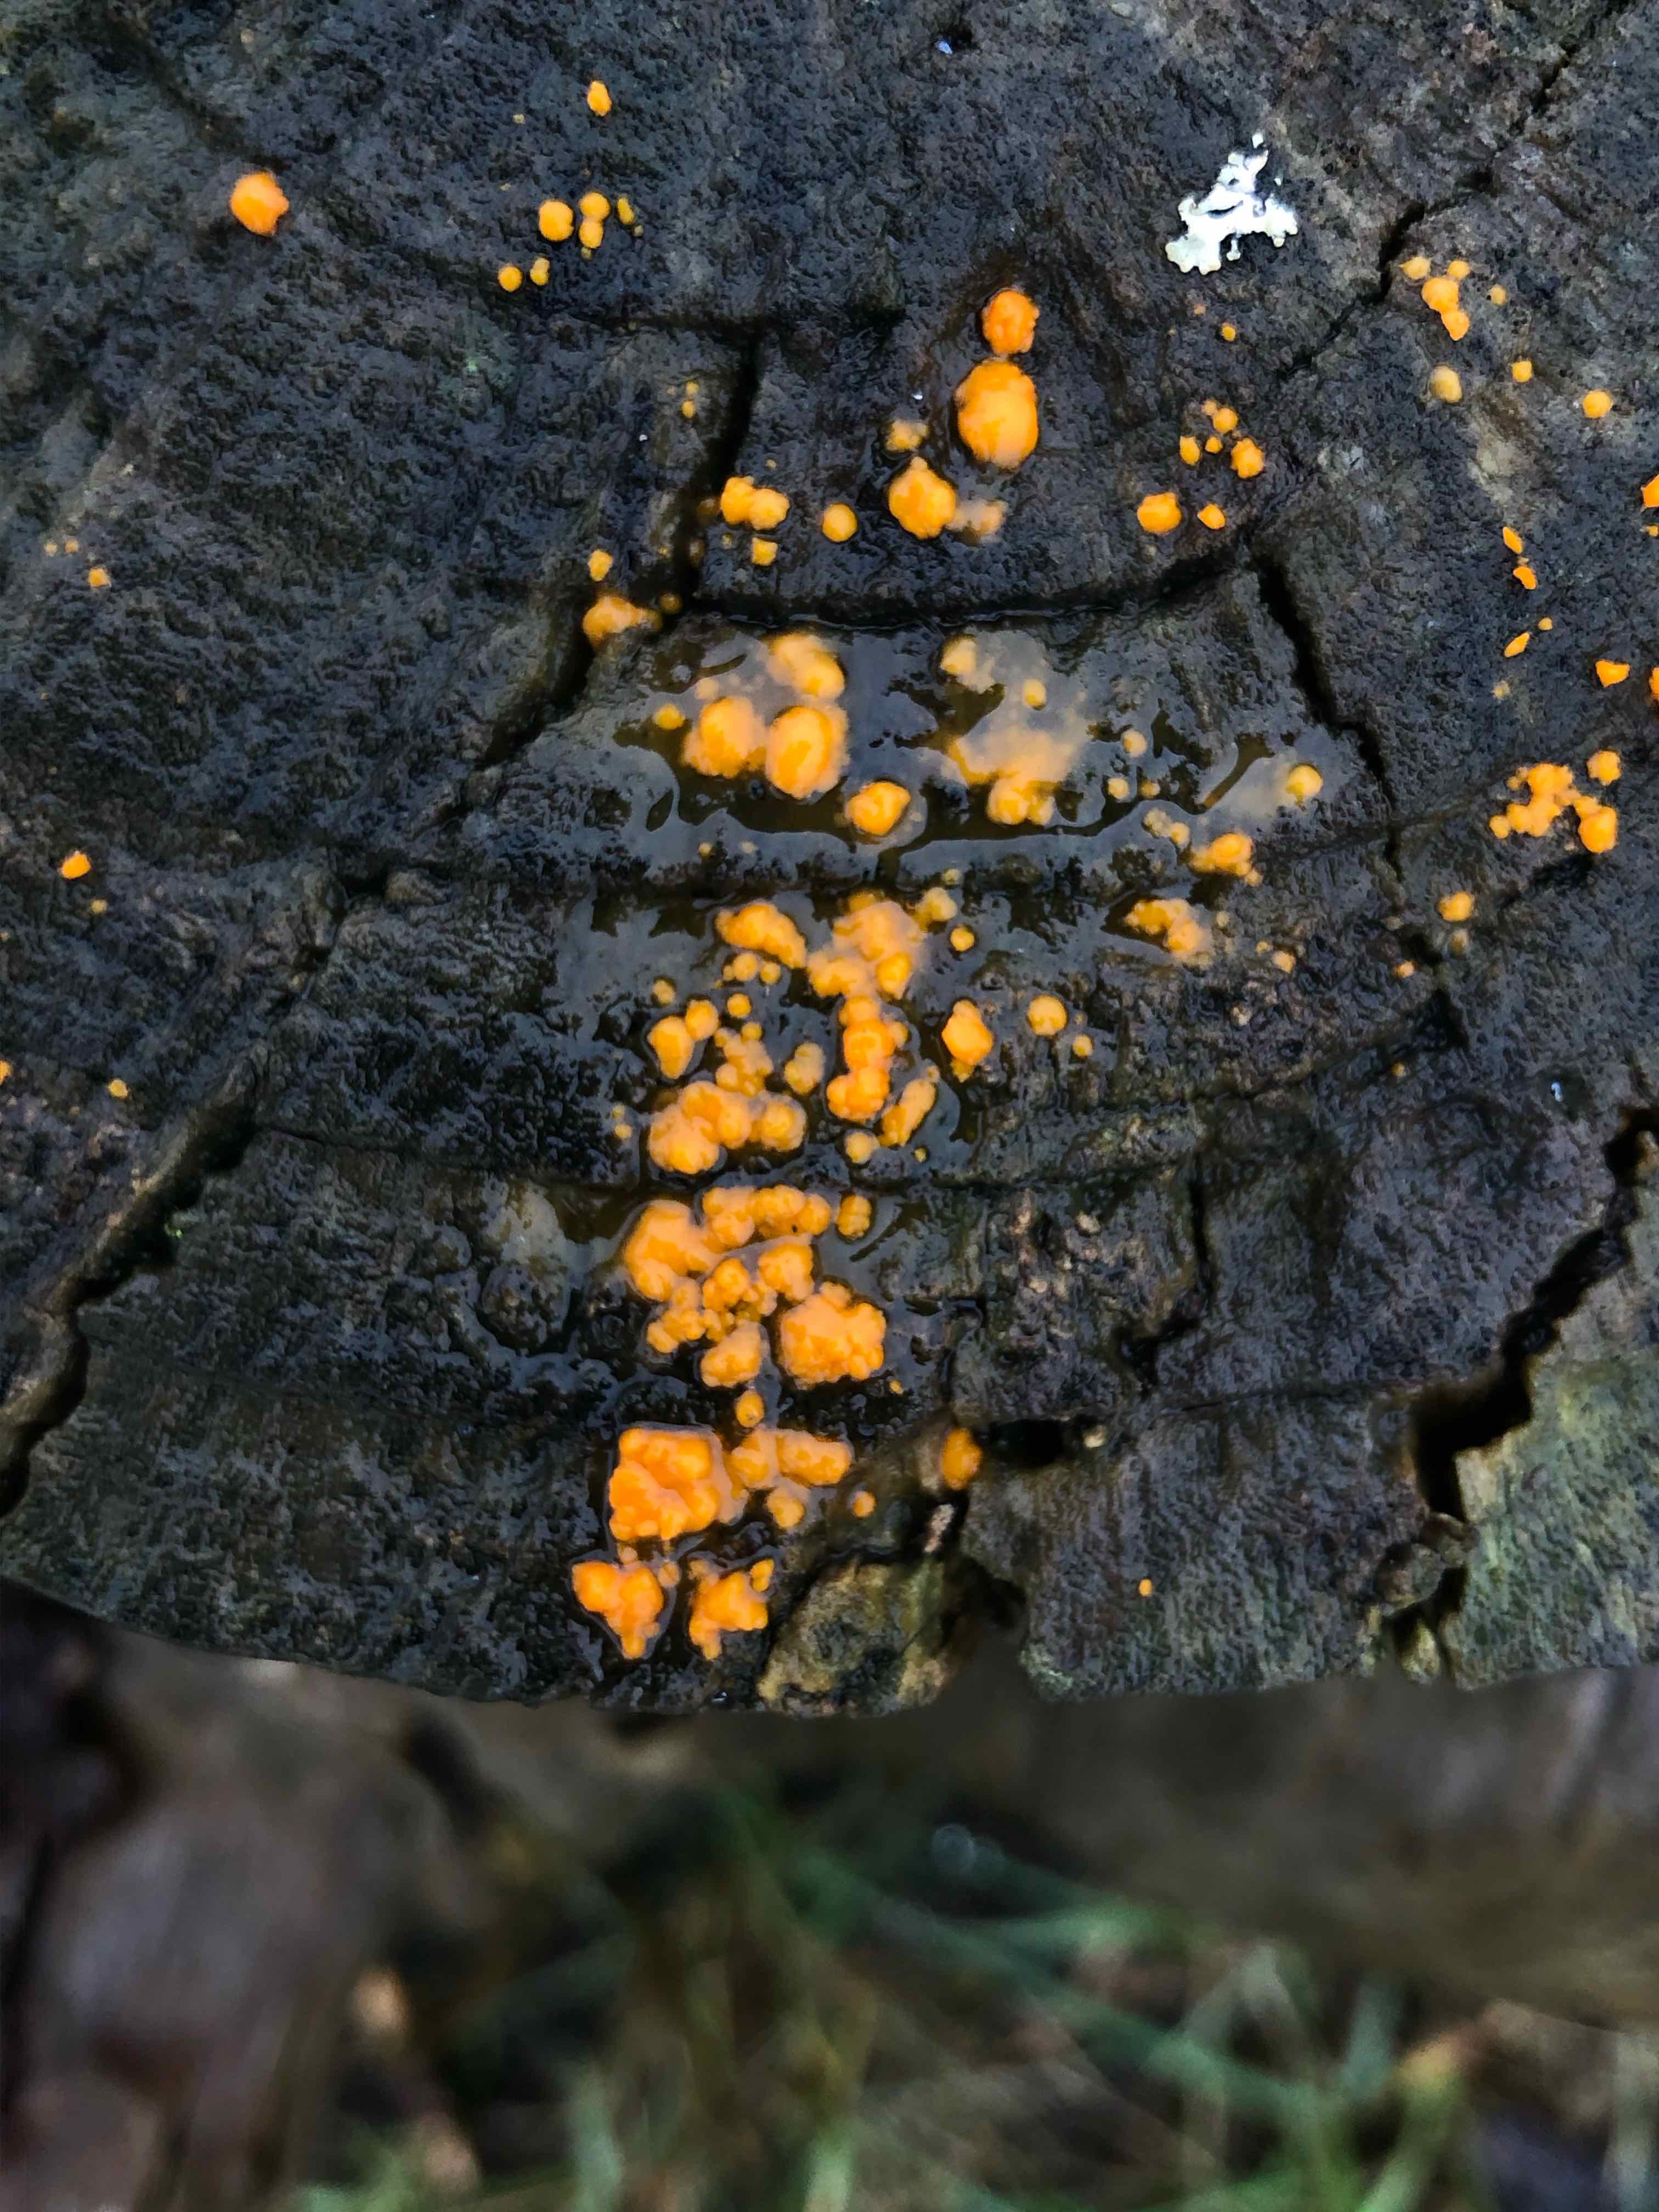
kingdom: Fungi
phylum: Basidiomycota
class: Dacrymycetes
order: Dacrymycetales
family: Dacrymycetaceae
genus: Dacrymyces
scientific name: Dacrymyces stillatus
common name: almindelig tåresvamp
